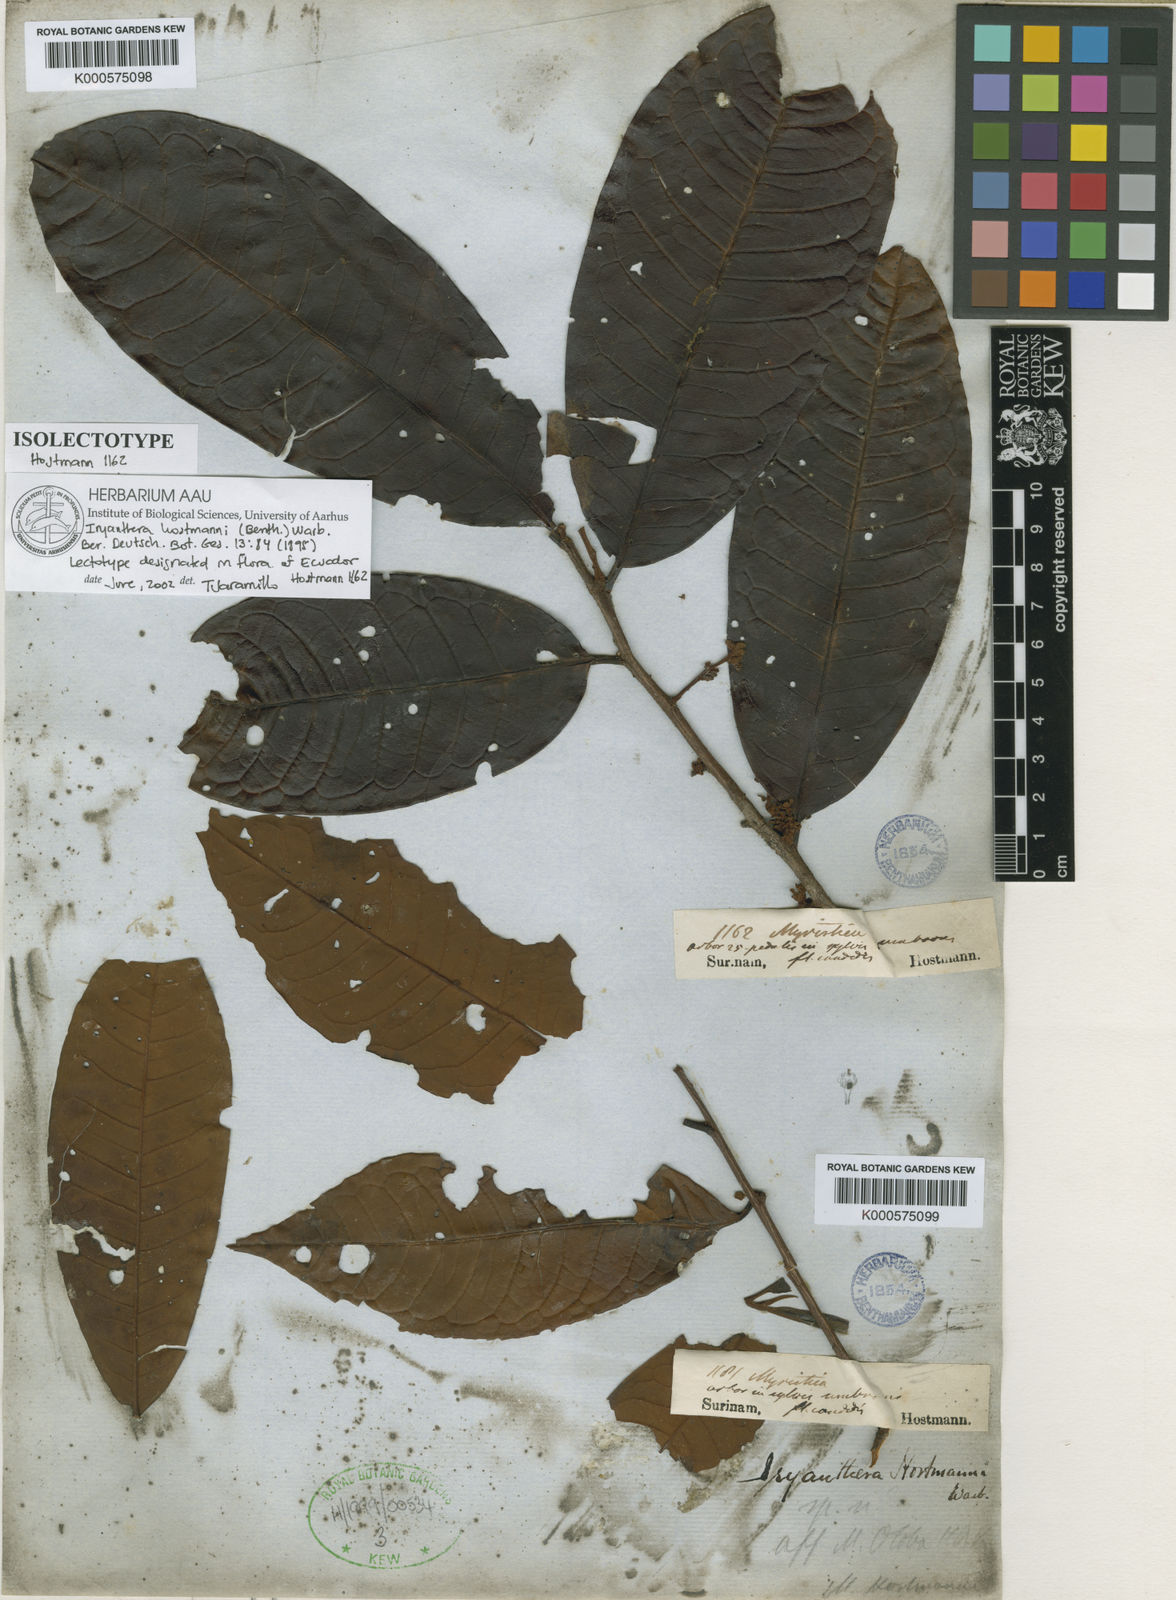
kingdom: Plantae
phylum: Tracheophyta
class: Magnoliopsida
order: Magnoliales
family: Myristicaceae
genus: Iryanthera
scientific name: Iryanthera hostmannii
